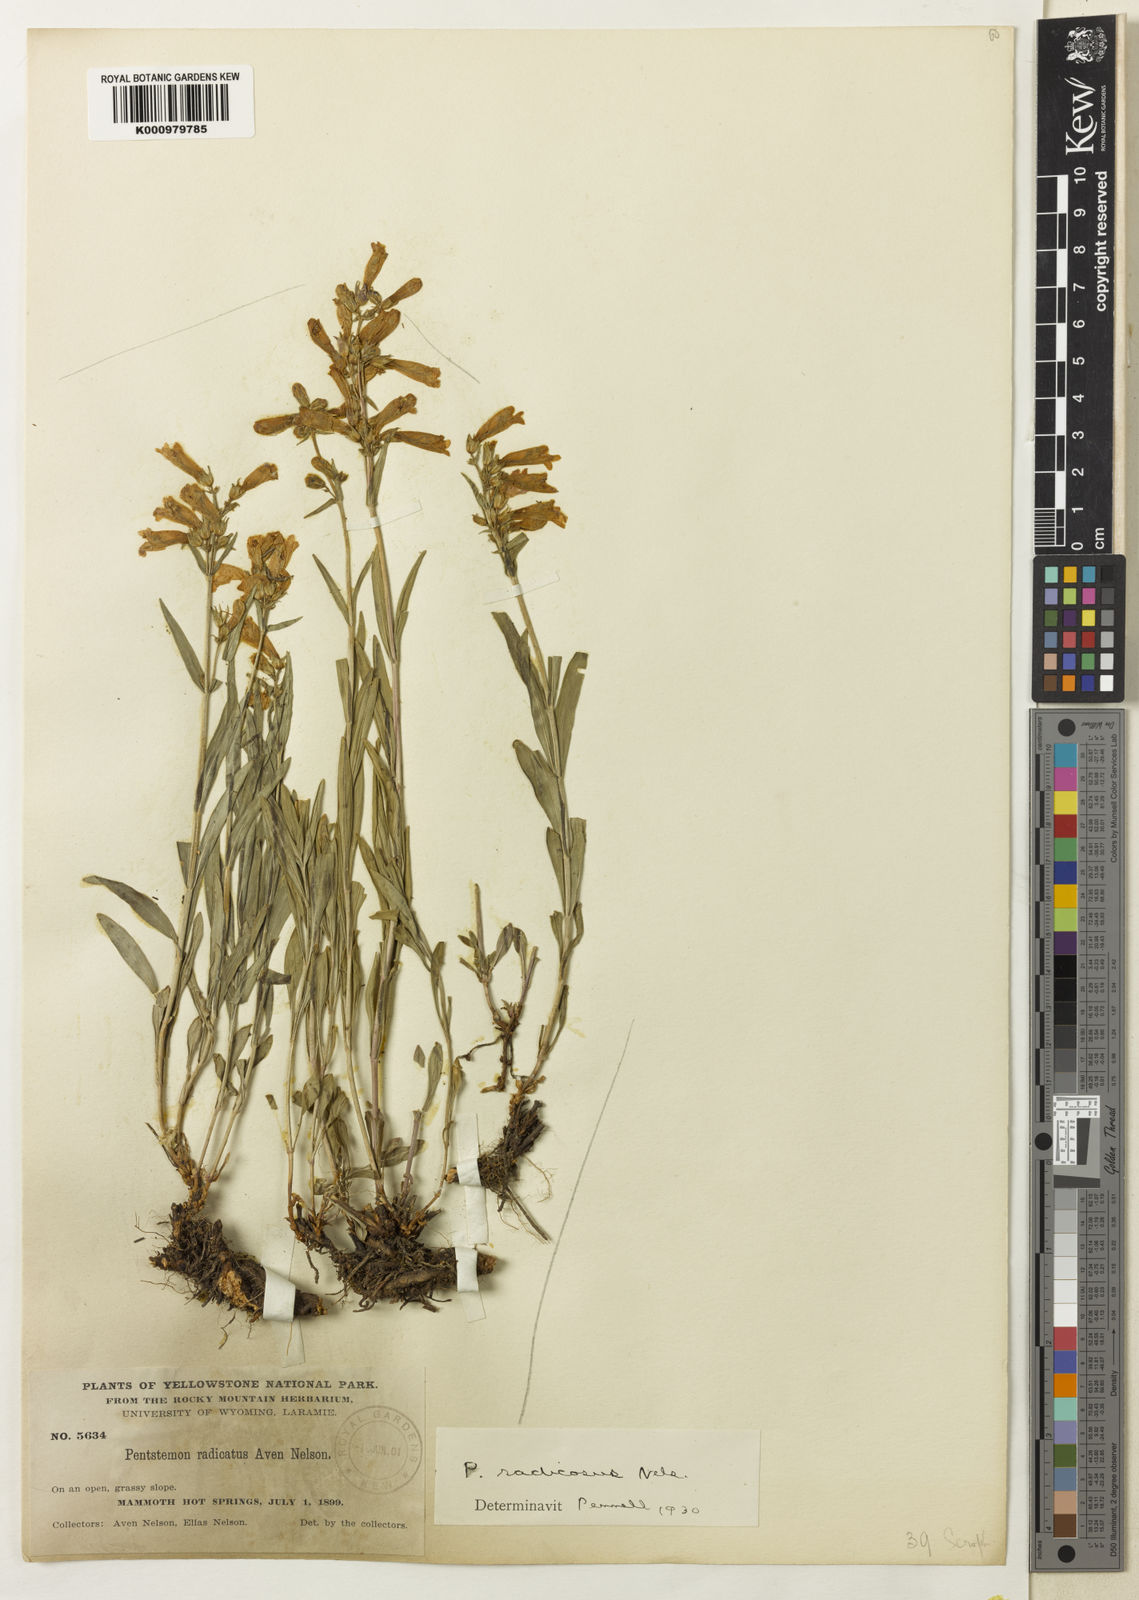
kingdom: Plantae
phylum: Tracheophyta
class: Magnoliopsida
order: Lamiales
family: Plantaginaceae
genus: Penstemon
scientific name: Penstemon radicosus
